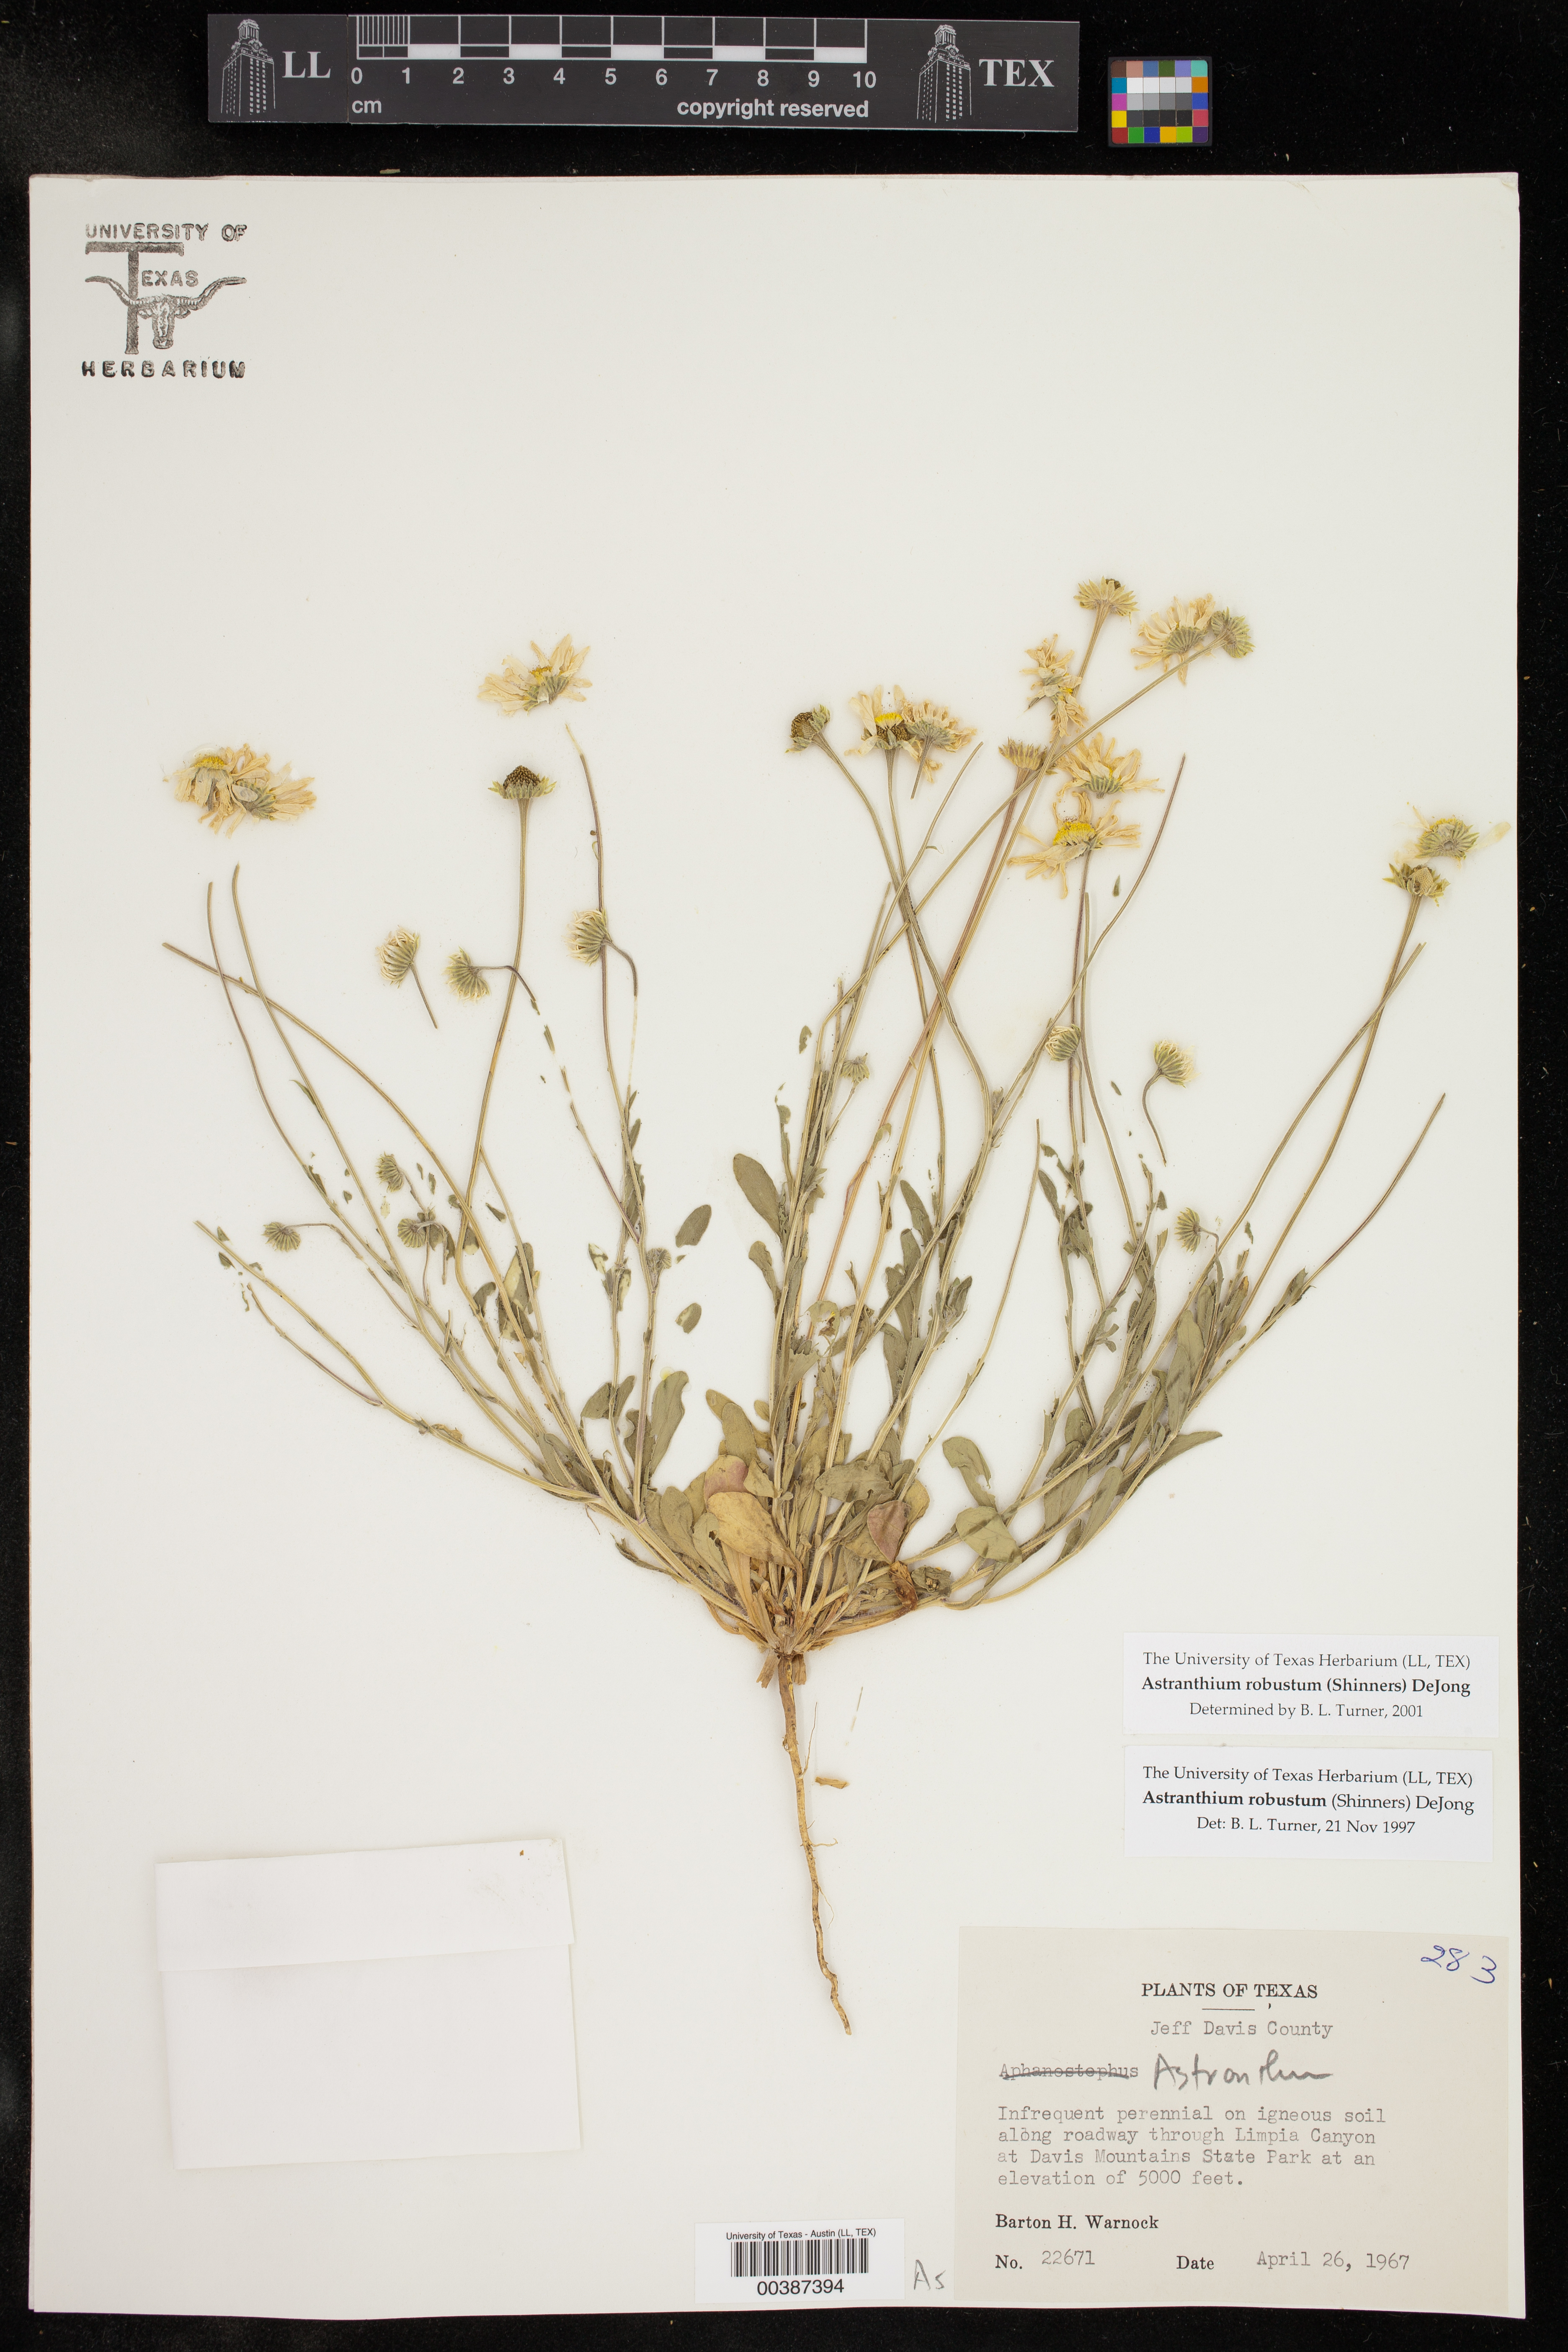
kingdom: Plantae
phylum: Tracheophyta
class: Magnoliopsida
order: Asterales
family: Asteraceae
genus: Astranthium
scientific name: Astranthium robustum
